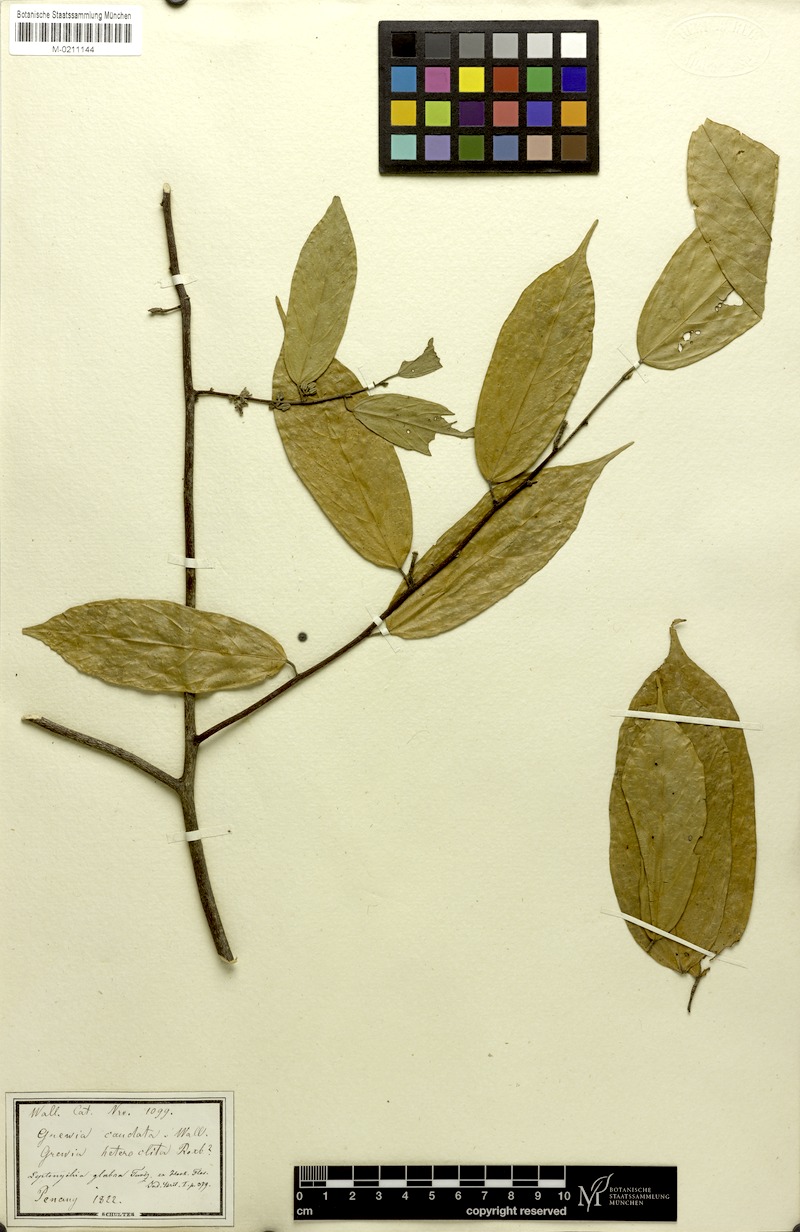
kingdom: Plantae
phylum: Tracheophyta
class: Magnoliopsida
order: Malvales
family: Malvaceae
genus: Leptonychia
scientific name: Leptonychia caudata
